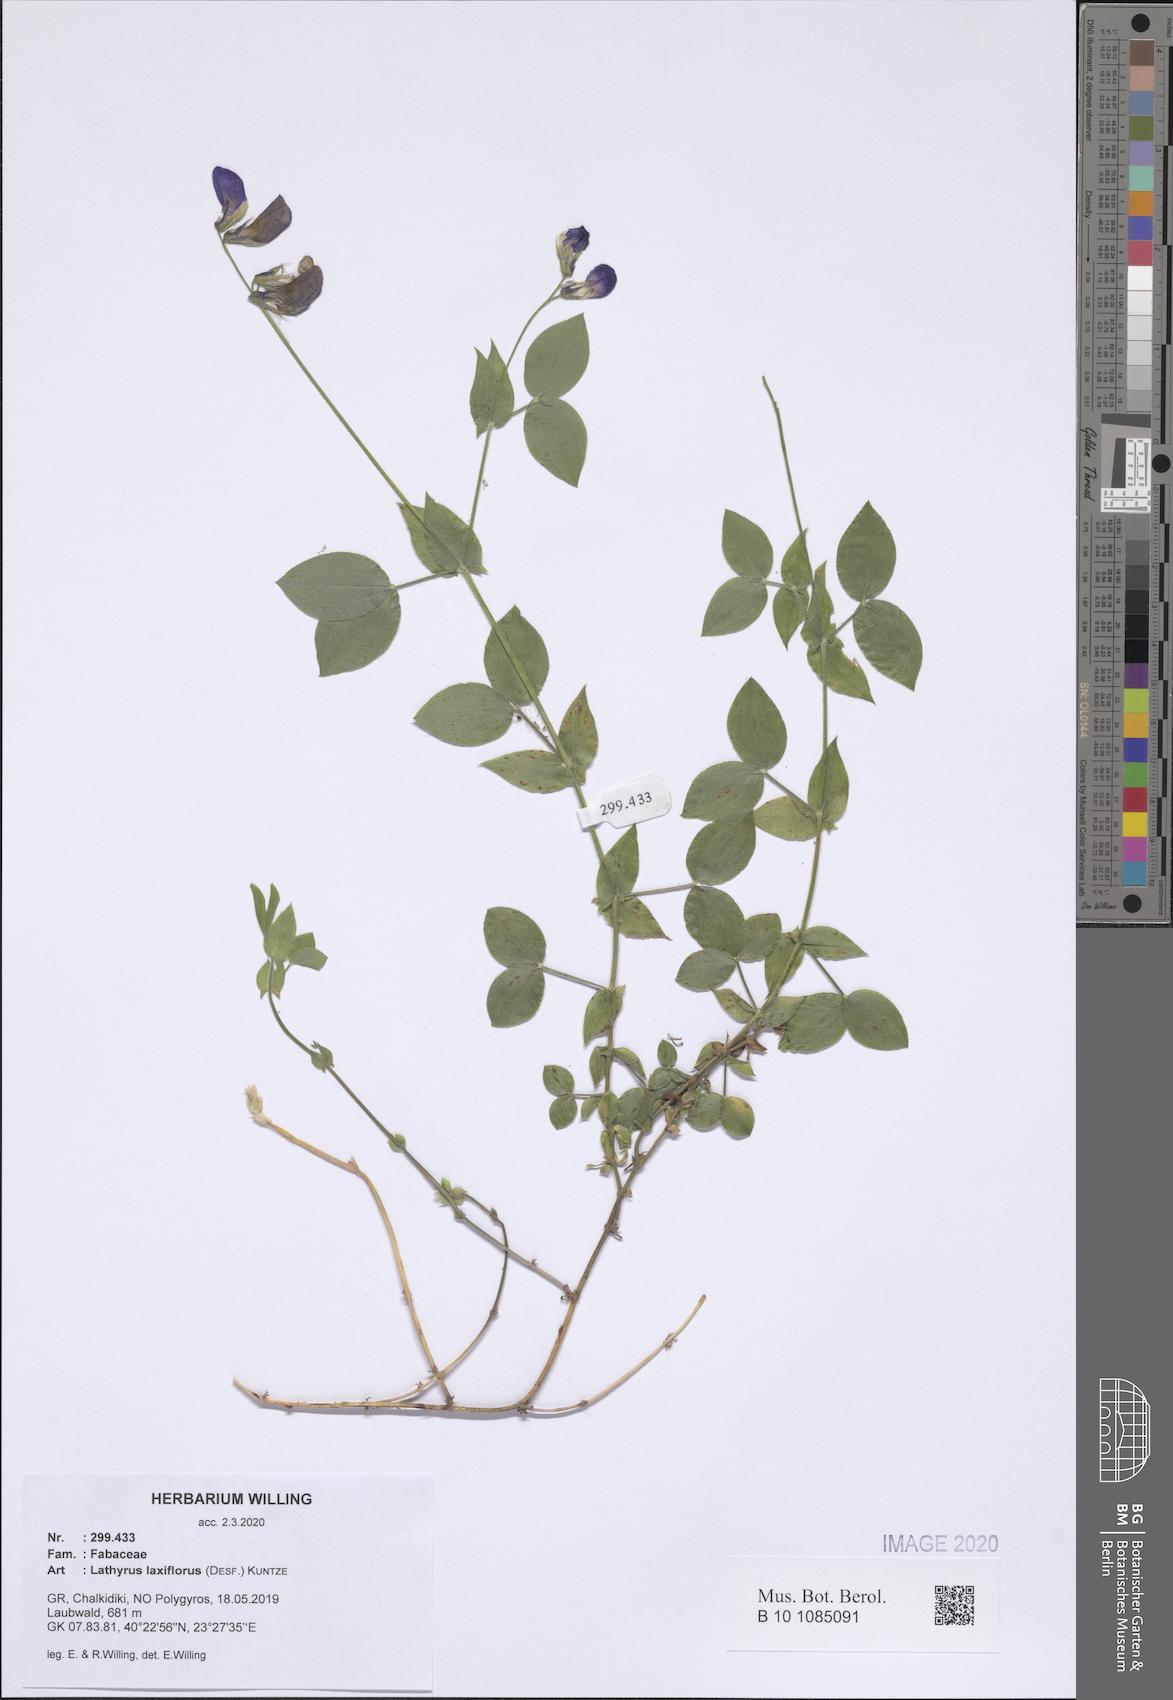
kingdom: Plantae
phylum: Tracheophyta
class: Magnoliopsida
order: Fabales
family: Fabaceae
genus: Lathyrus
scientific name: Lathyrus laxiflorus
